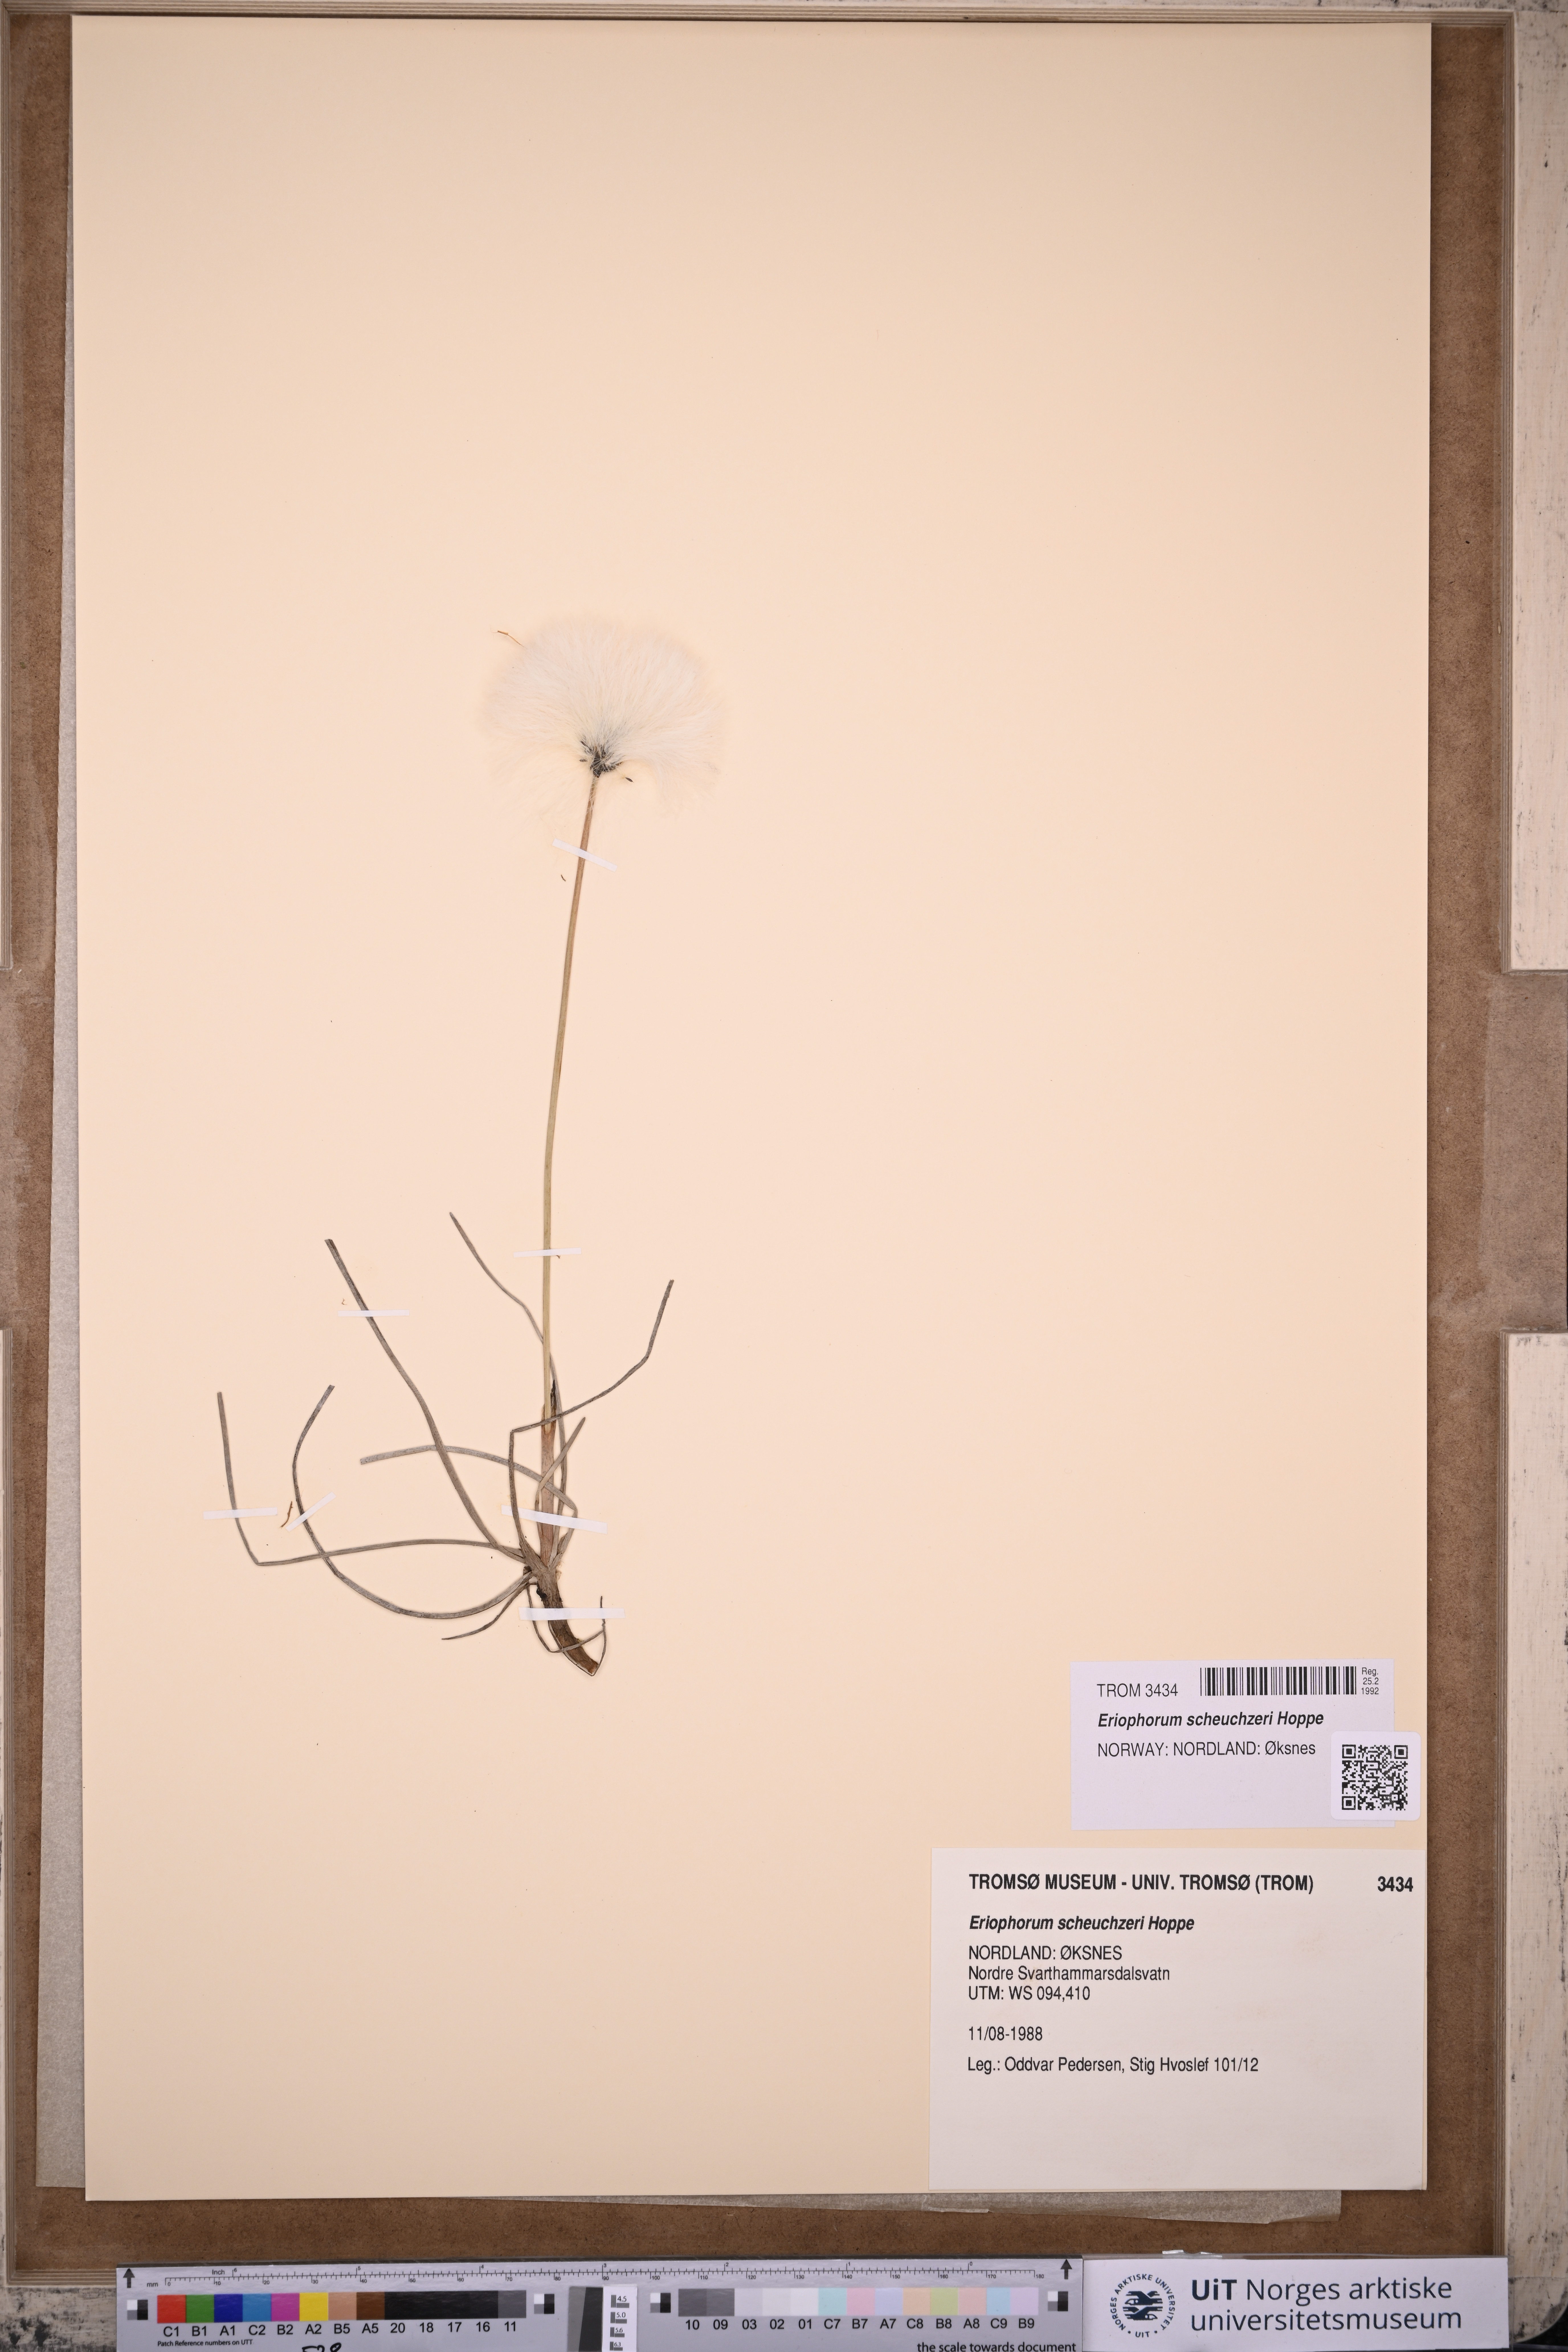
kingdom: Plantae
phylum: Tracheophyta
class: Liliopsida
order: Poales
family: Cyperaceae
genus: Eriophorum
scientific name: Eriophorum scheuchzeri
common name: Scheuchzer's cottongrass
